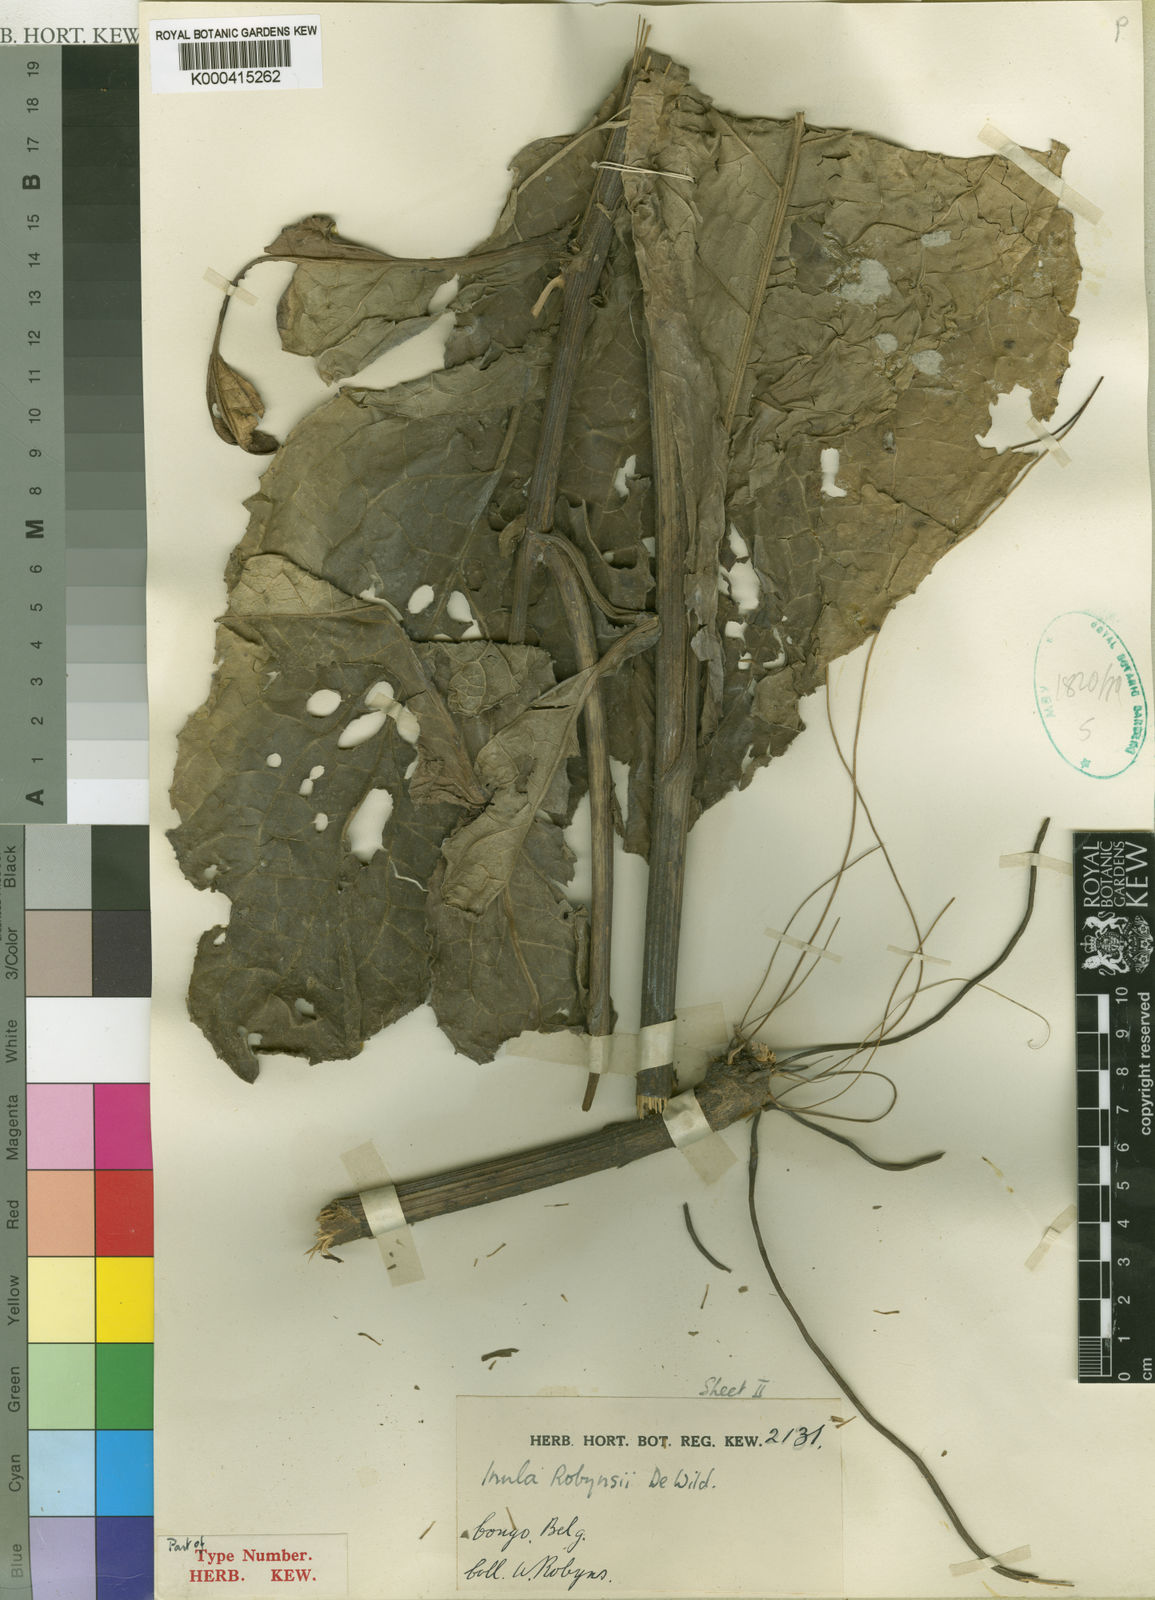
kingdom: Plantae
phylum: Tracheophyta
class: Magnoliopsida
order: Asterales
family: Asteraceae
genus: Inula
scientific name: Inula robynsii
